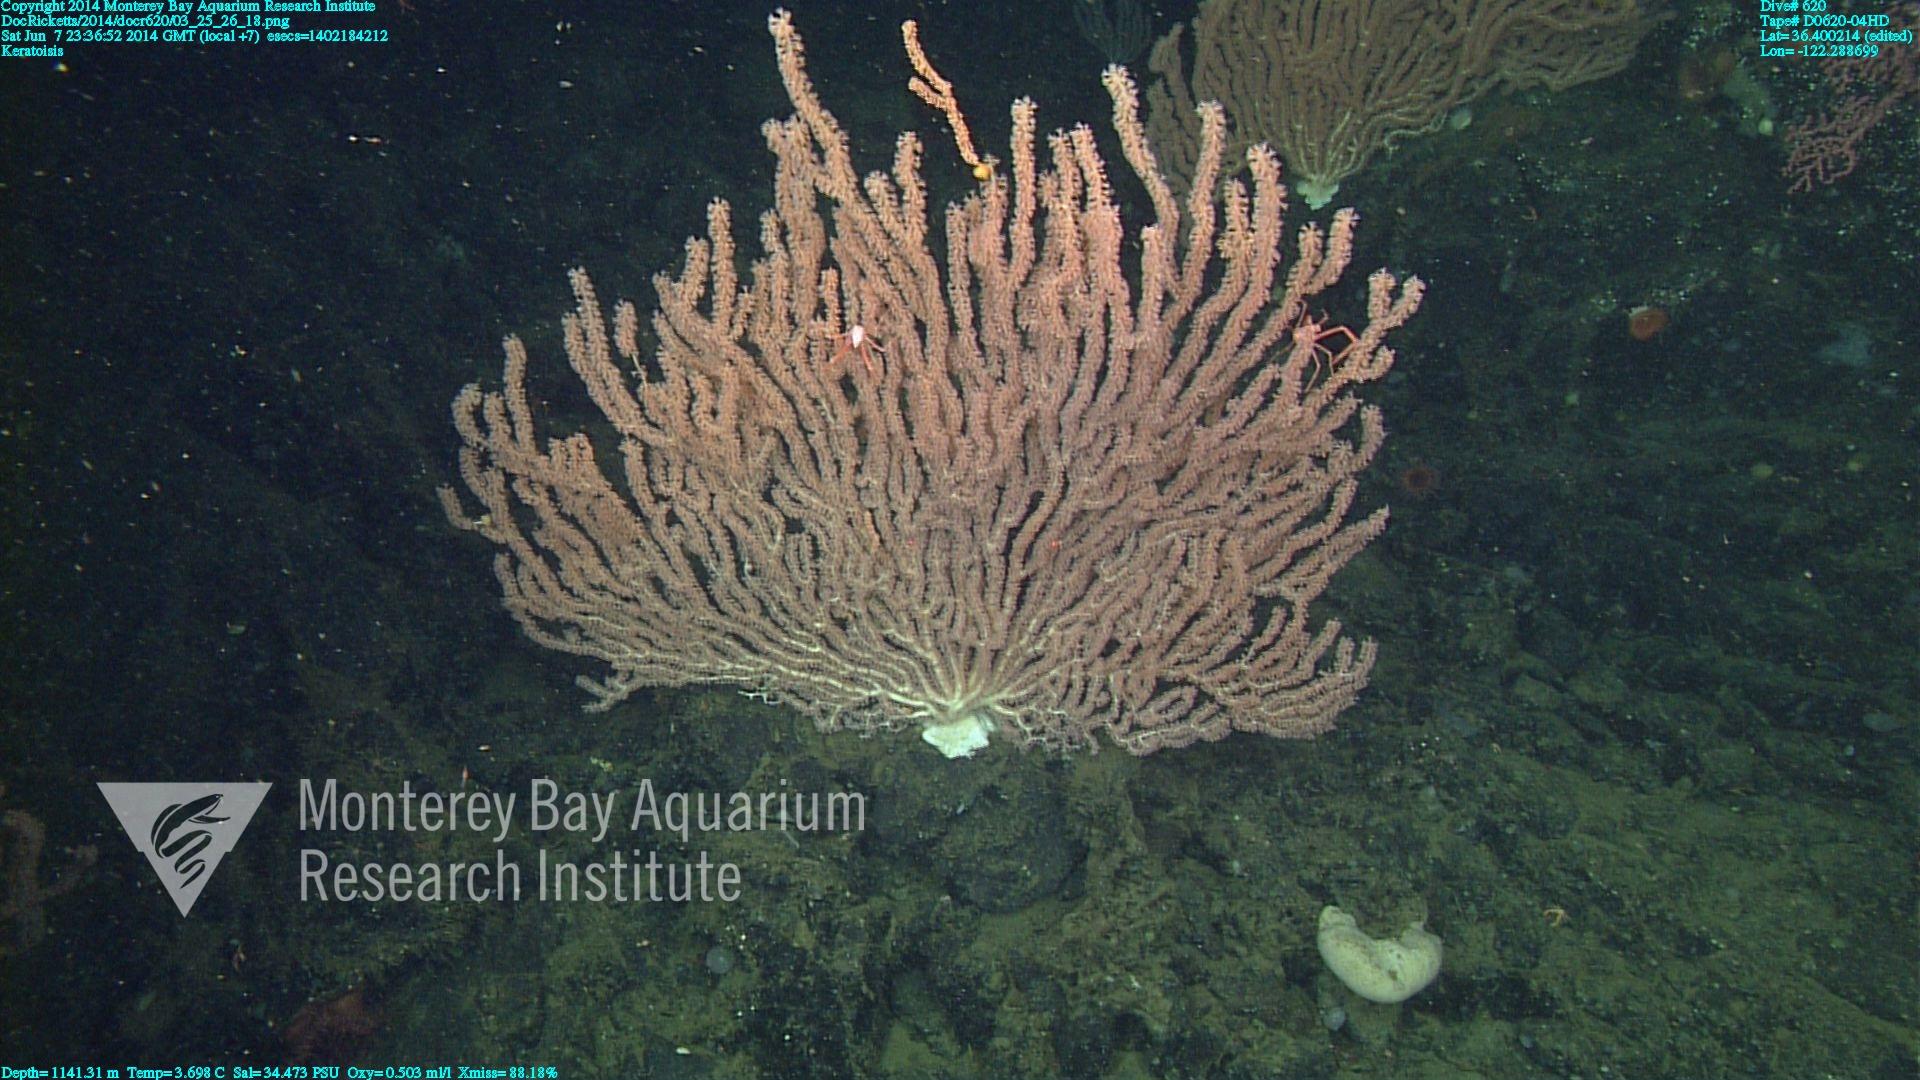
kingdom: Animalia
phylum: Cnidaria
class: Anthozoa
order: Scleralcyonacea
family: Keratoisididae
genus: Keratoisis
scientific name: Keratoisis
